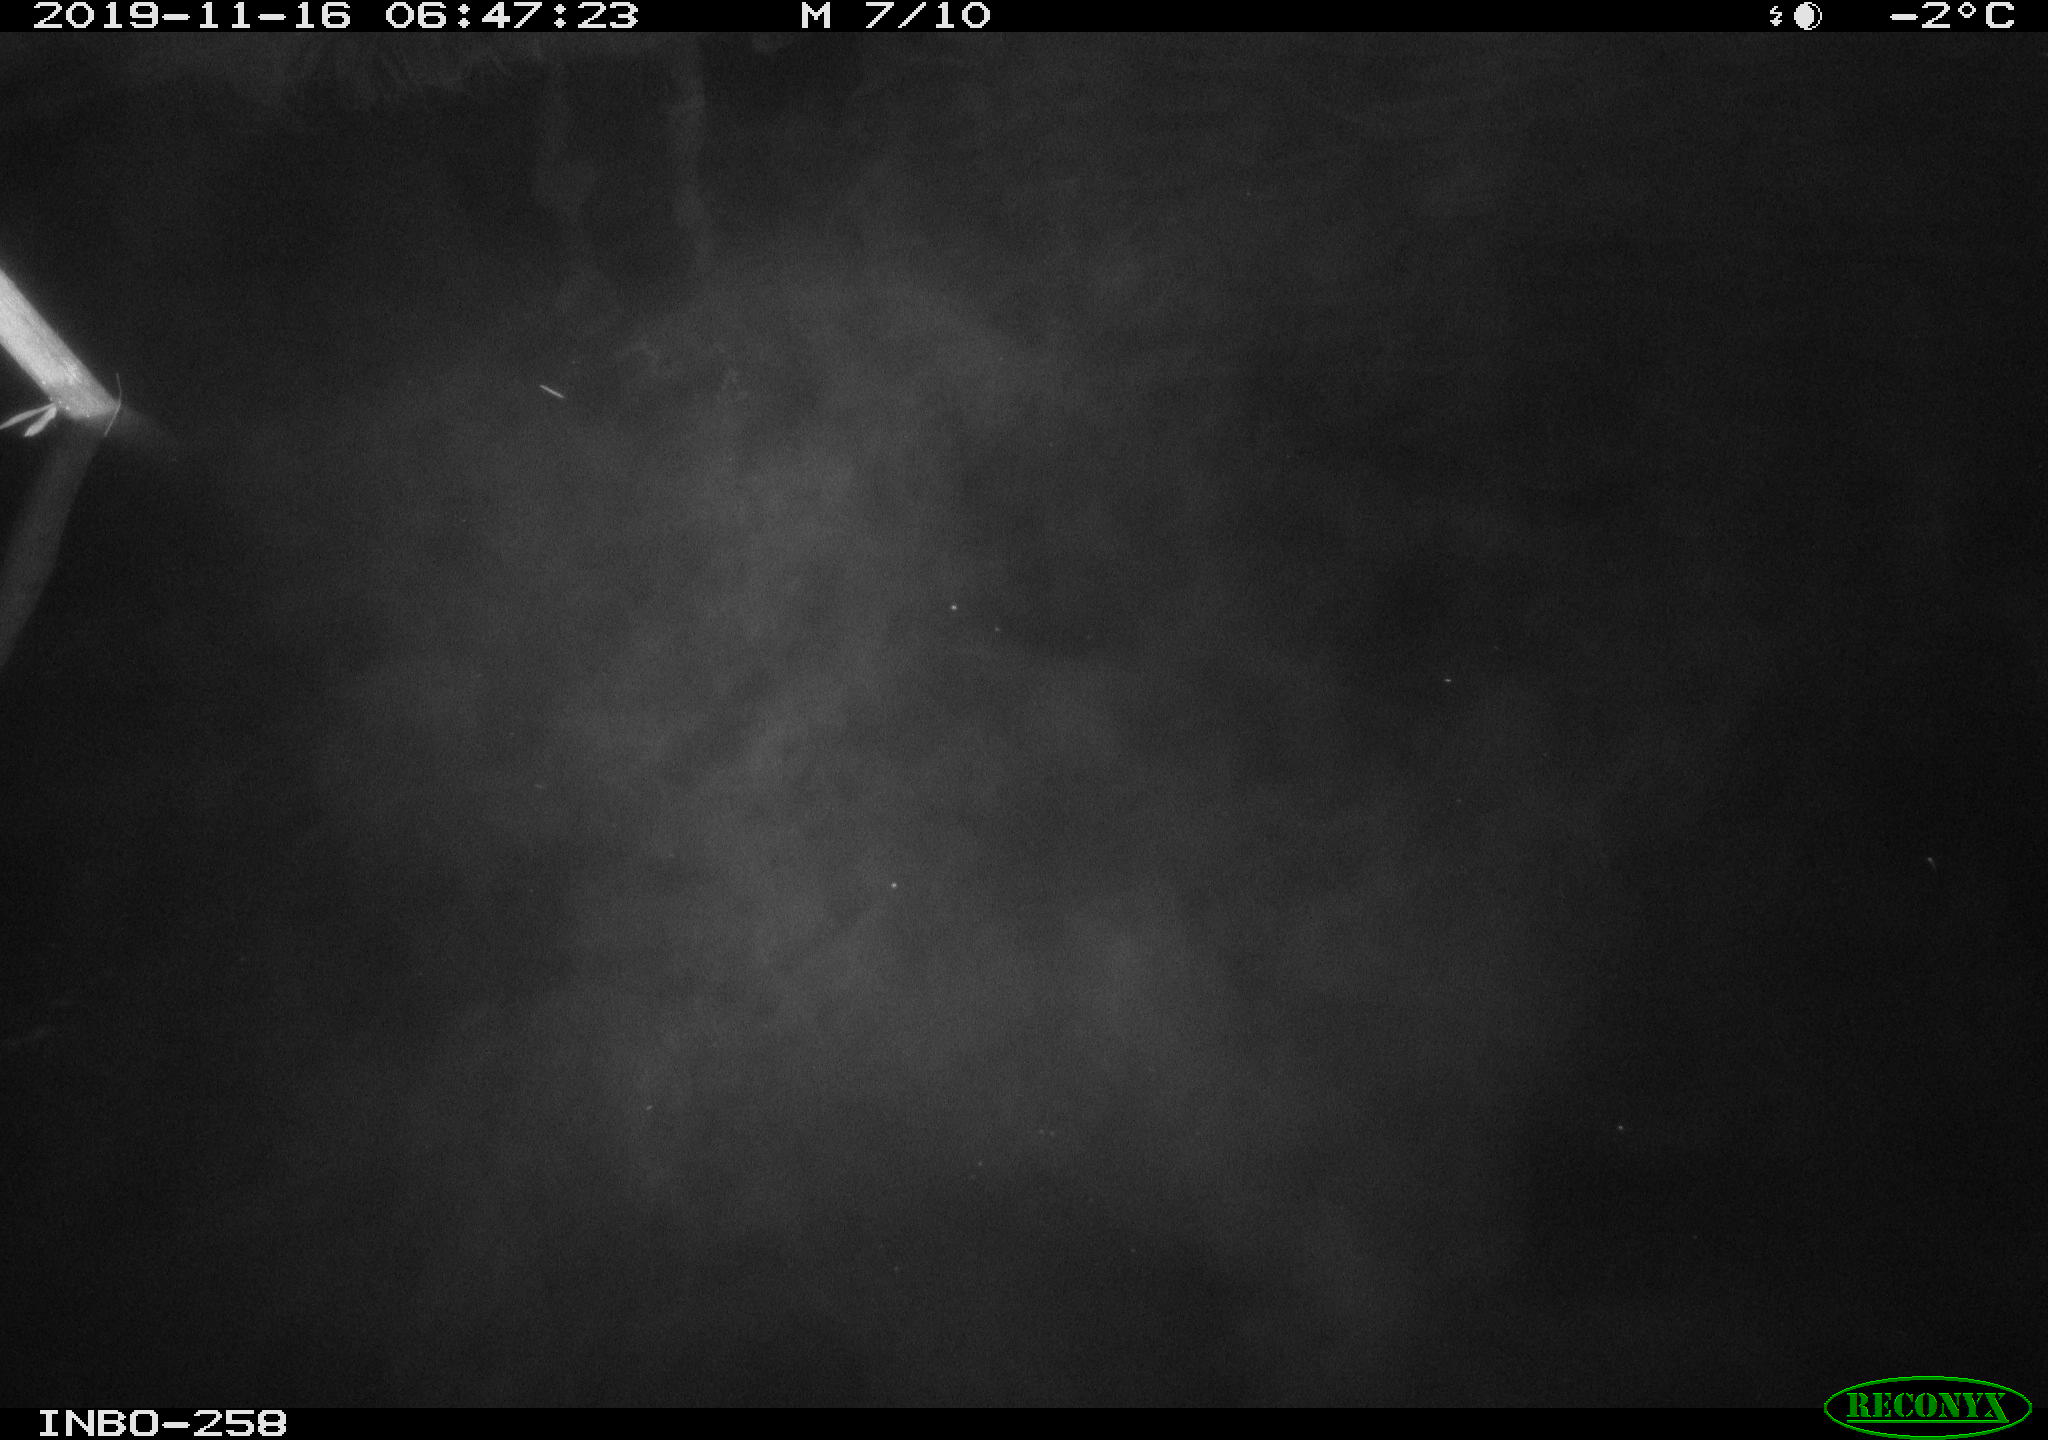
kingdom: Animalia
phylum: Chordata
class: Aves
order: Anseriformes
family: Anatidae
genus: Anas
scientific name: Anas platyrhynchos
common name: Mallard
